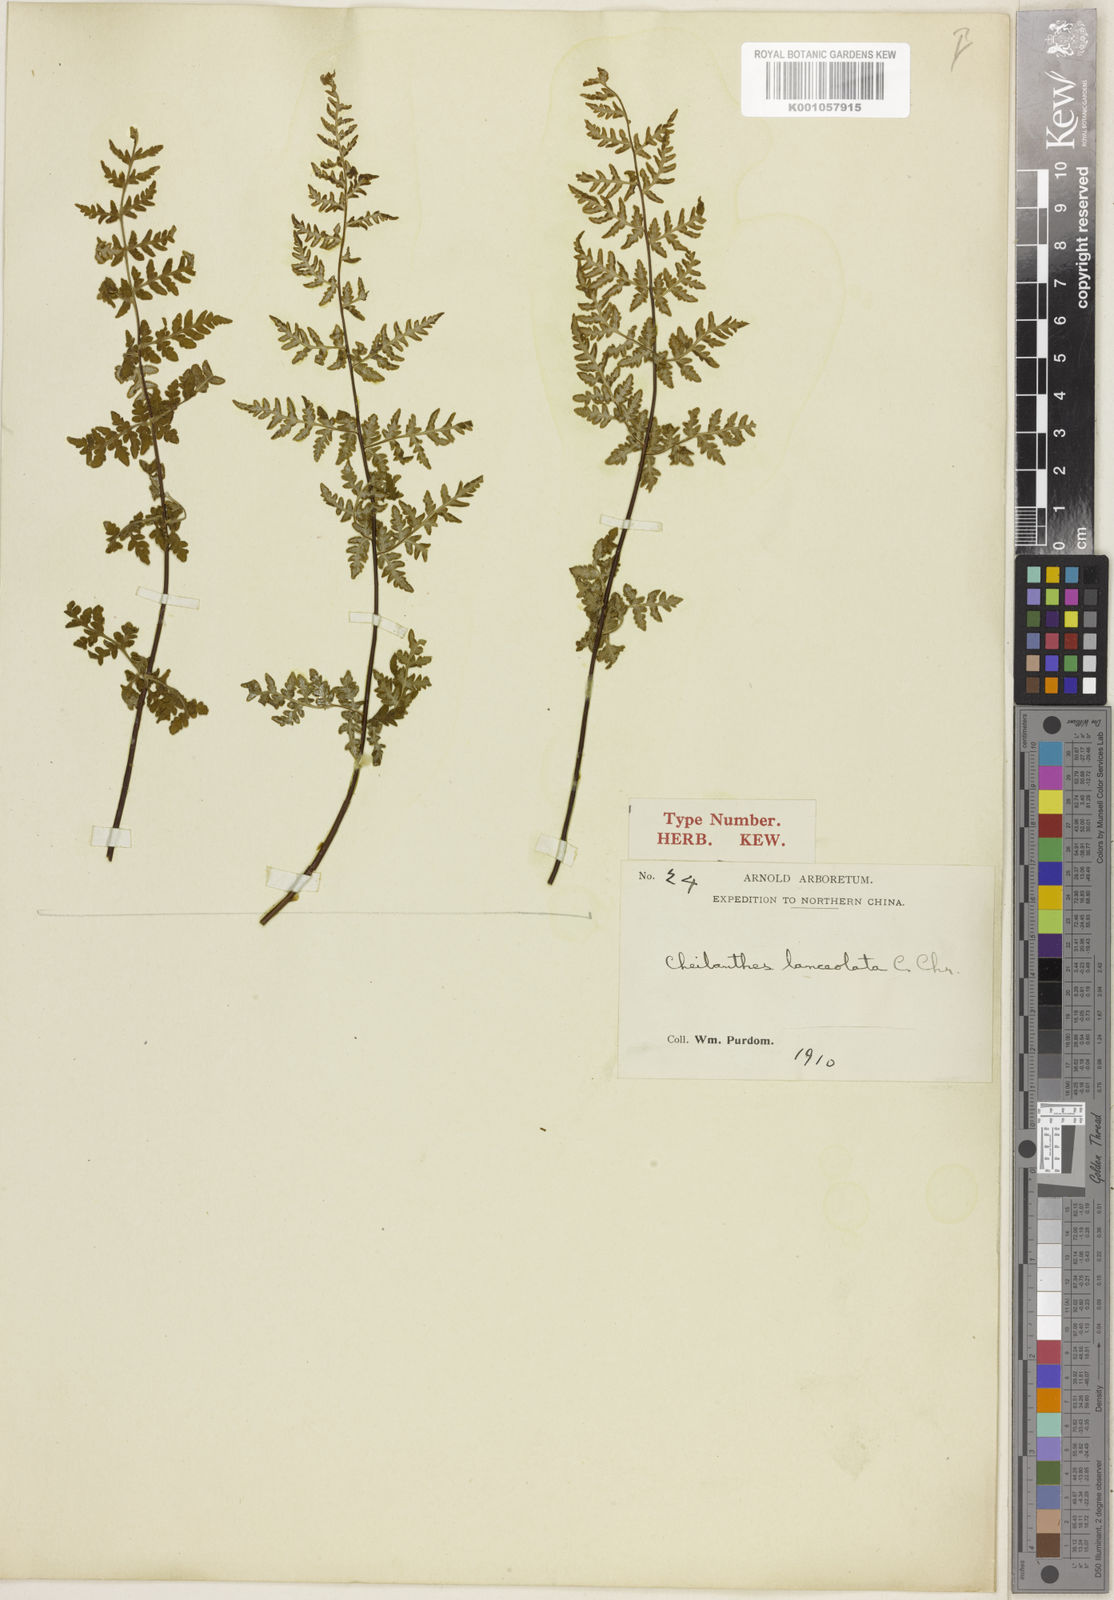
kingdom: Plantae
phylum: Tracheophyta
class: Polypodiopsida
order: Polypodiales
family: Pteridaceae
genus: Oeosporangium
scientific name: Oeosporangium kuhnii
